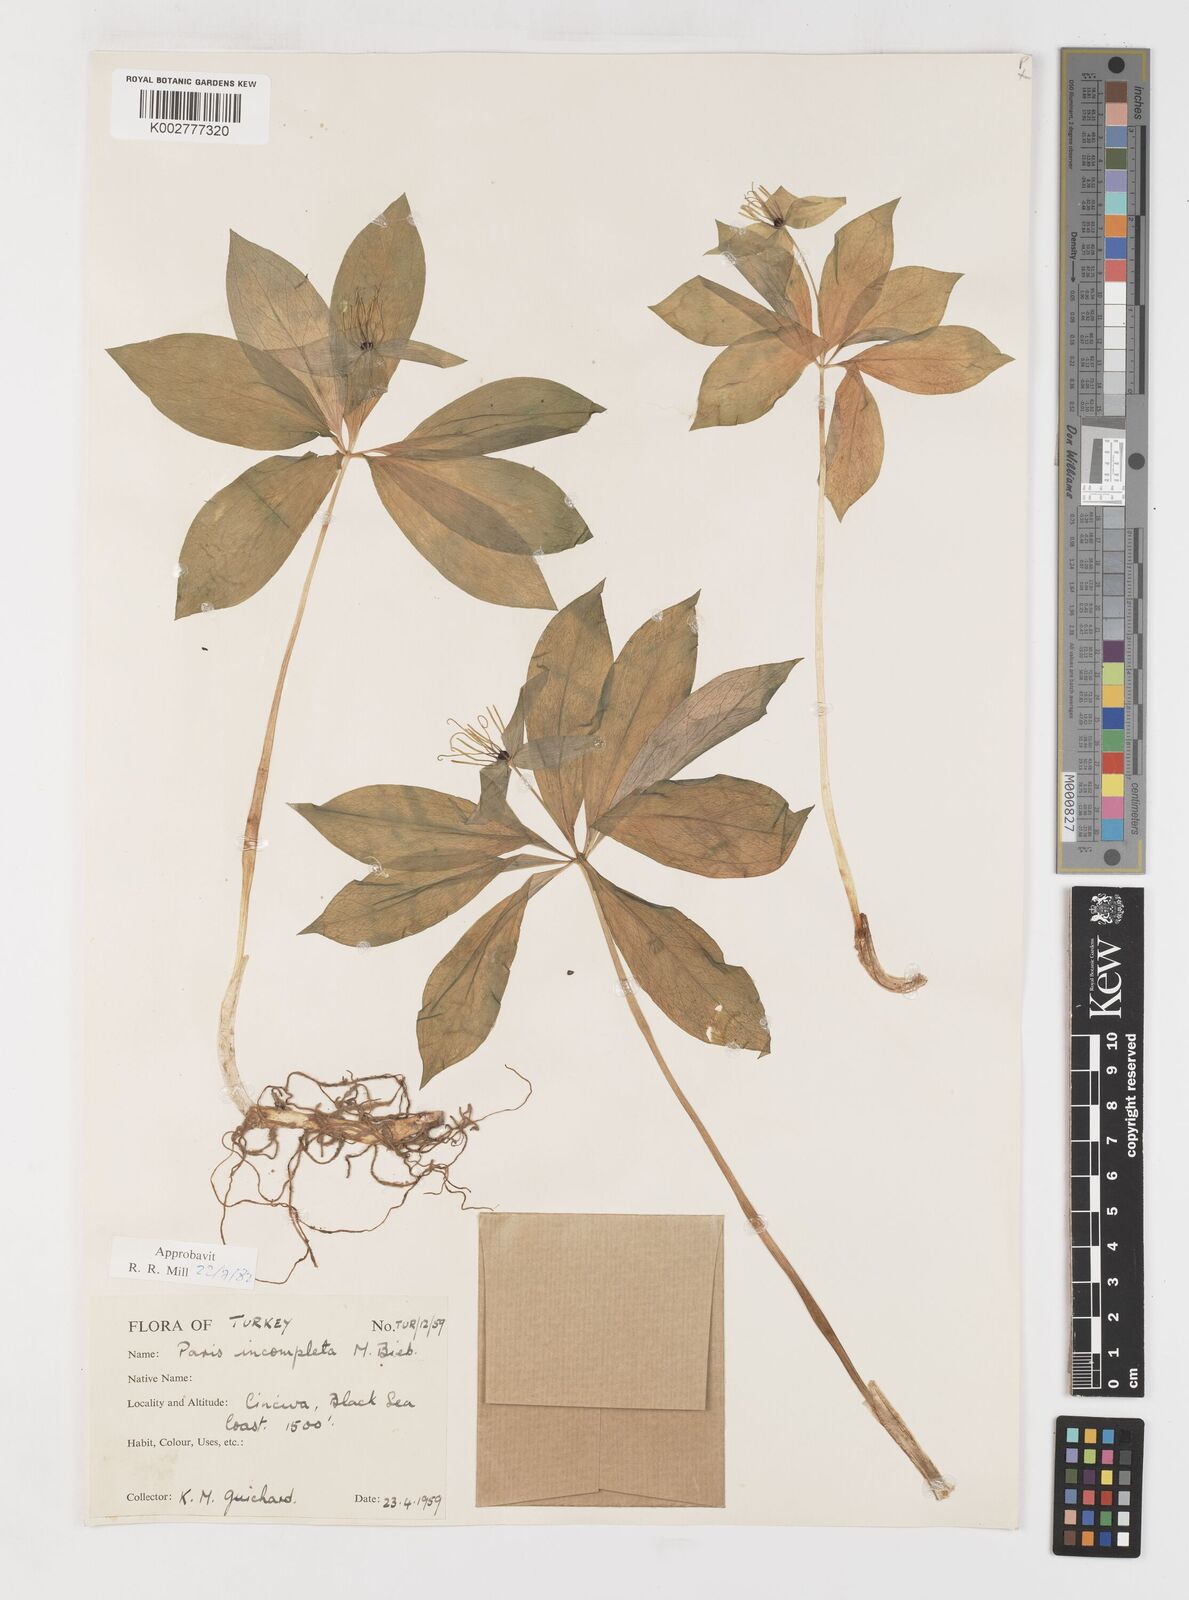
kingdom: Plantae
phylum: Tracheophyta
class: Liliopsida
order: Liliales
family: Melanthiaceae
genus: Paris
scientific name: Paris quadrifolia
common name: Herb-paris
